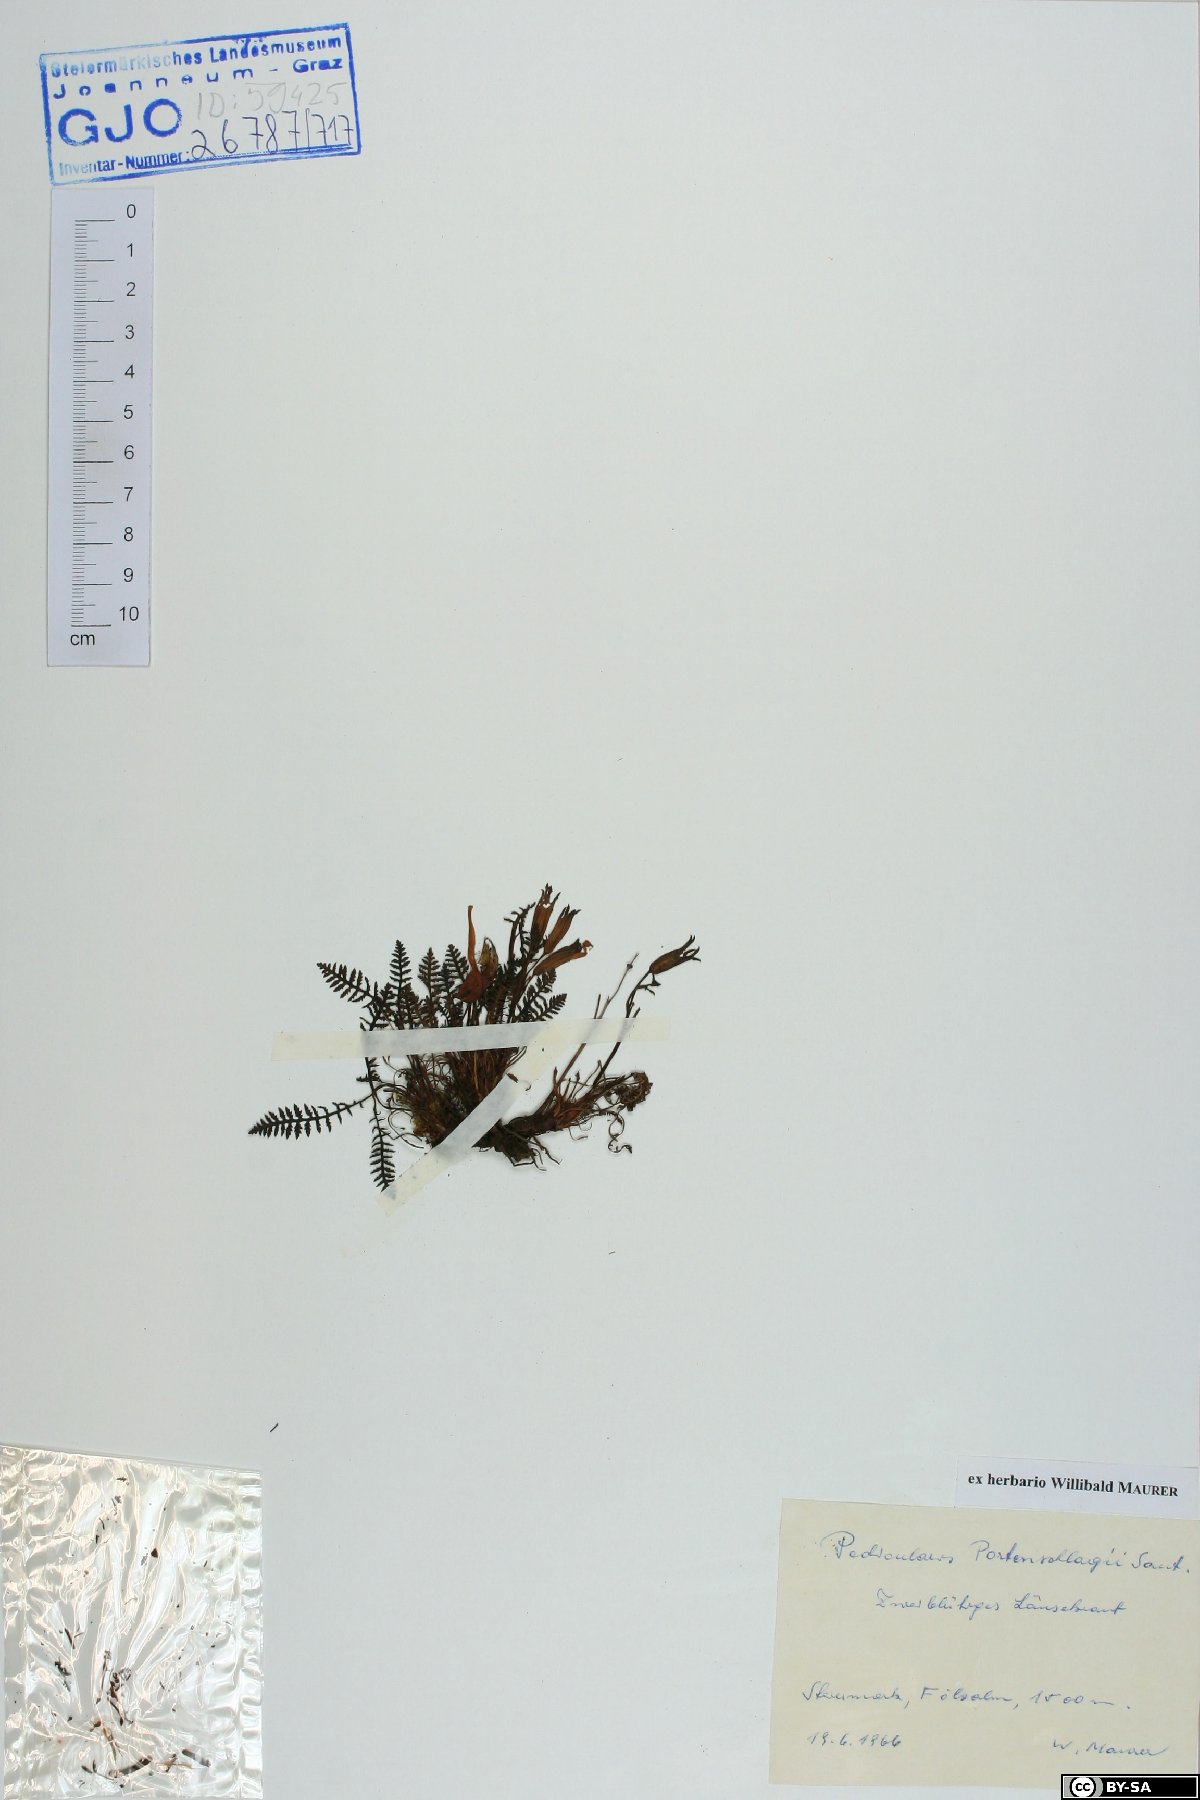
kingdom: Plantae
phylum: Tracheophyta
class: Magnoliopsida
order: Lamiales
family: Orobanchaceae
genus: Pedicularis
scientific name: Pedicularis portenschlagii
